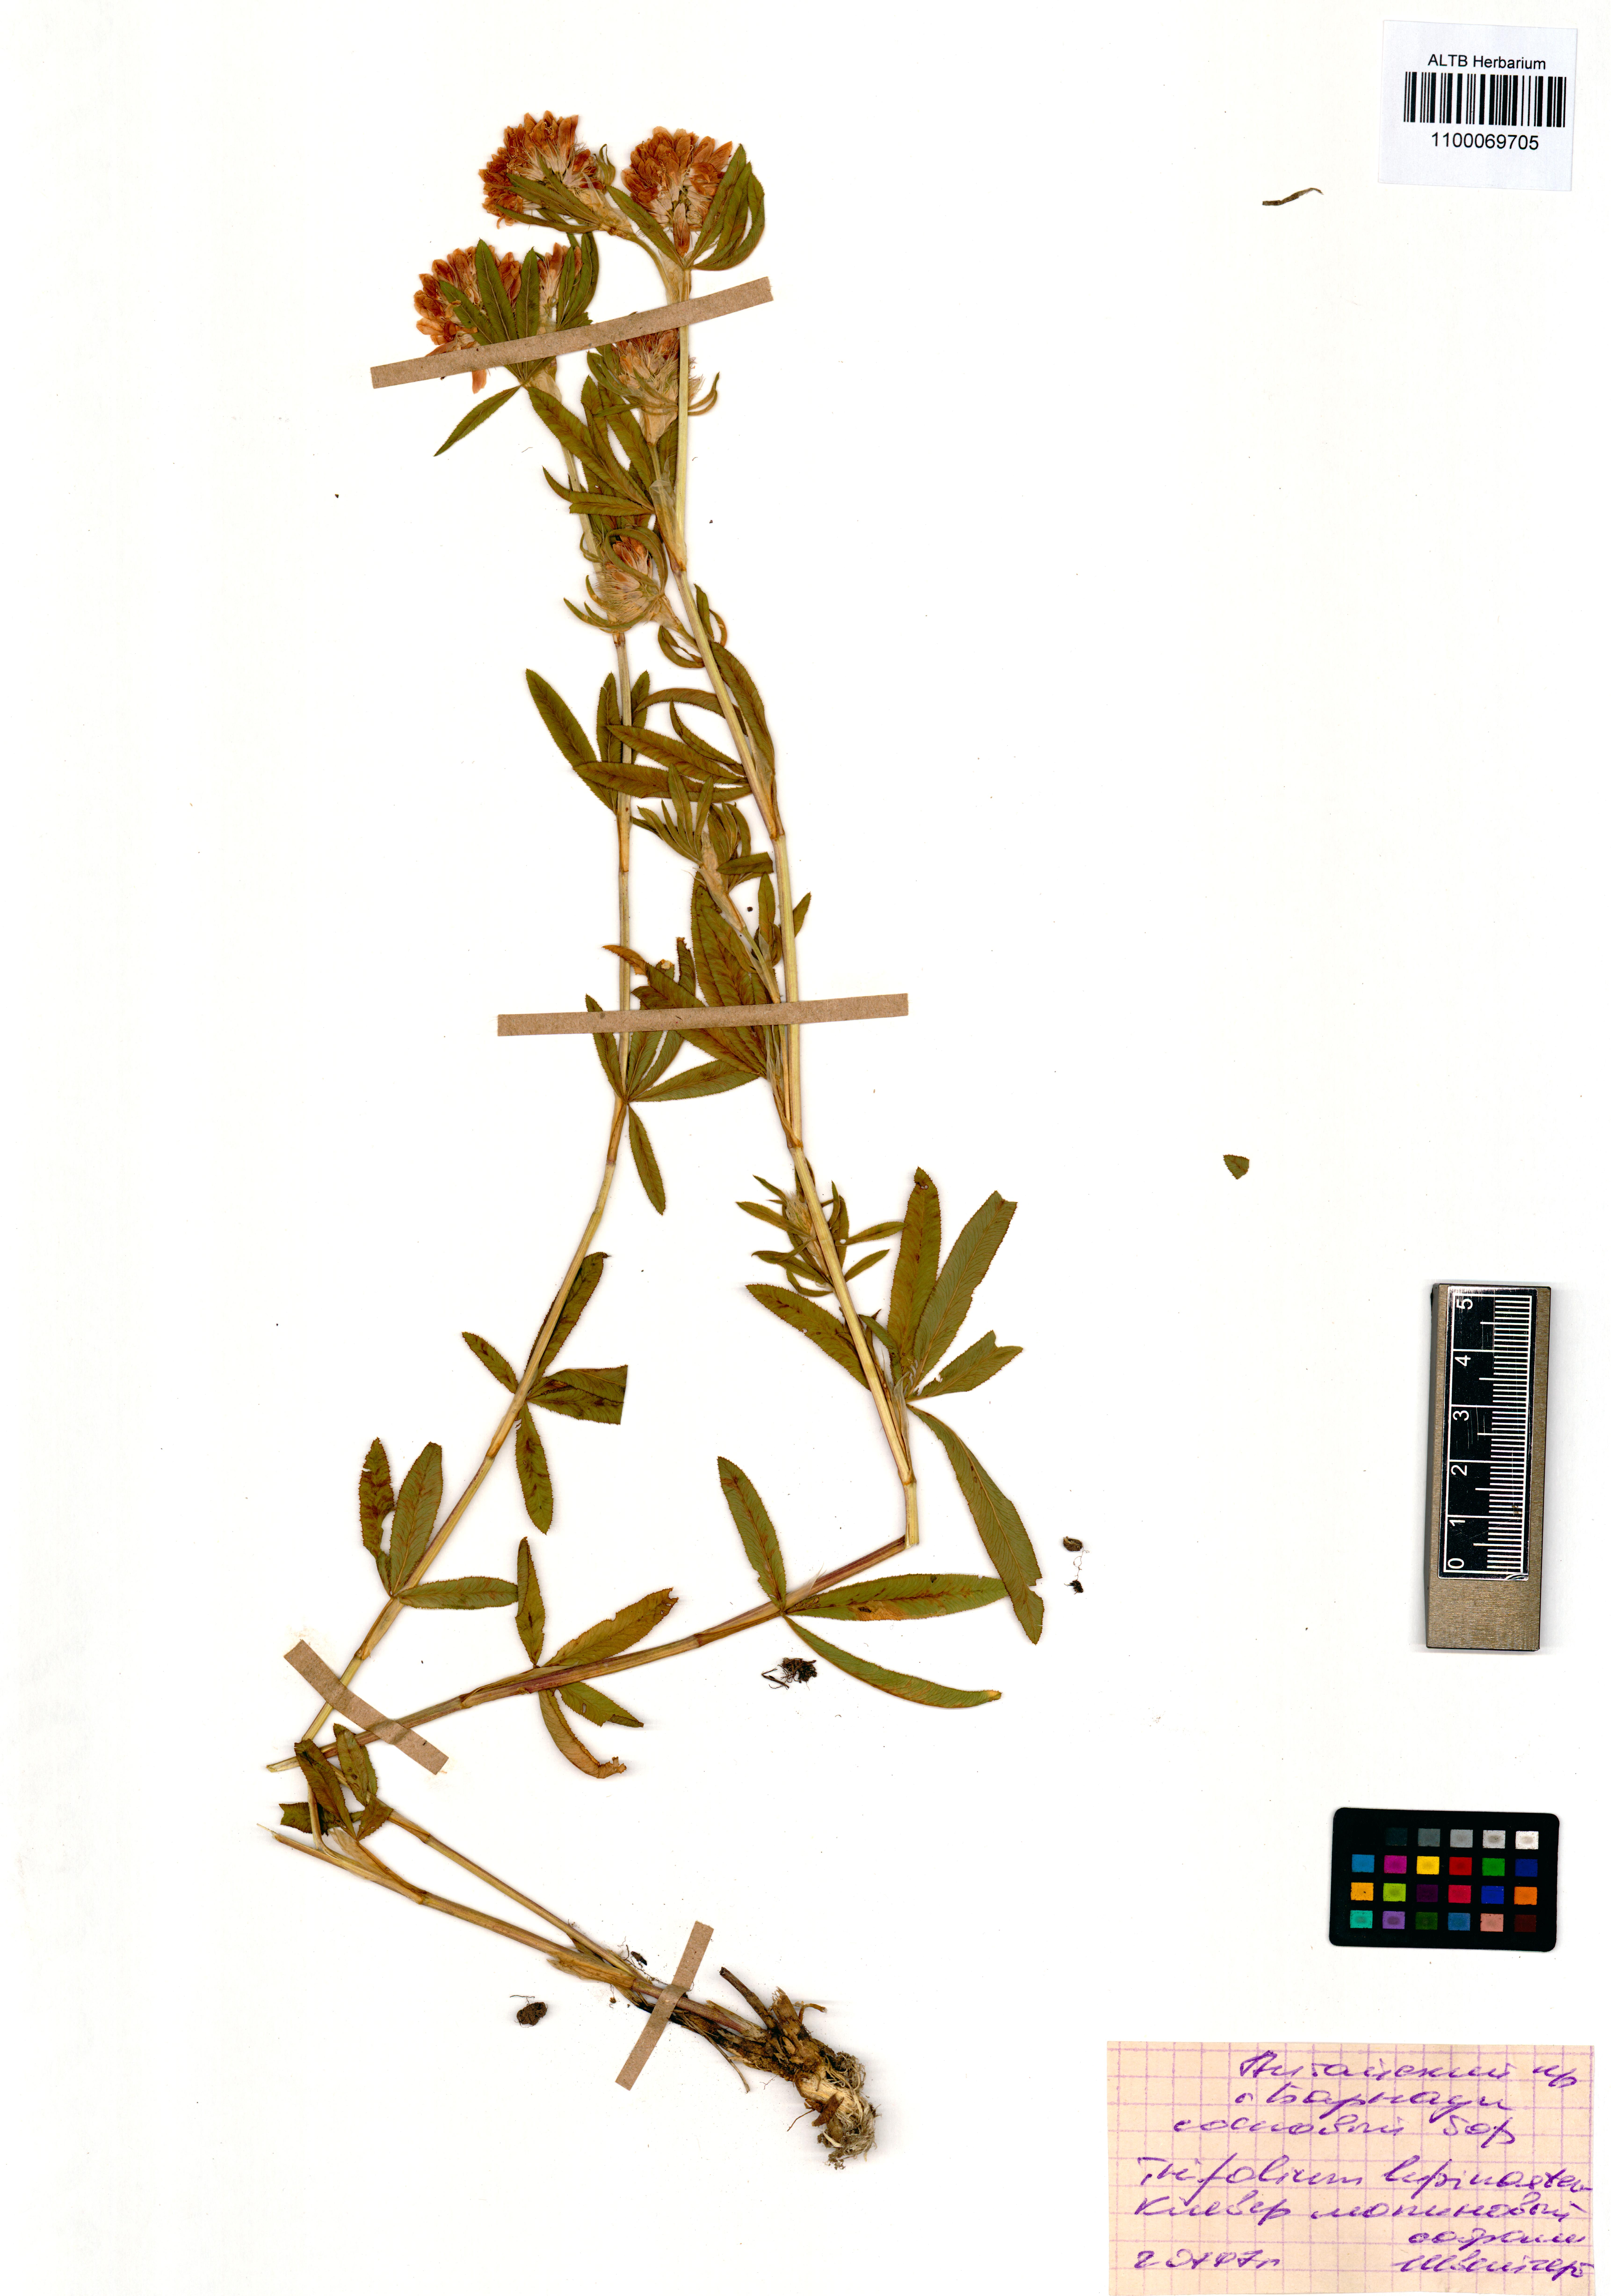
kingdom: Plantae
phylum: Tracheophyta
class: Magnoliopsida
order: Fabales
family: Fabaceae
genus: Trifolium
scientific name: Trifolium lupinaster
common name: Lupine clover
